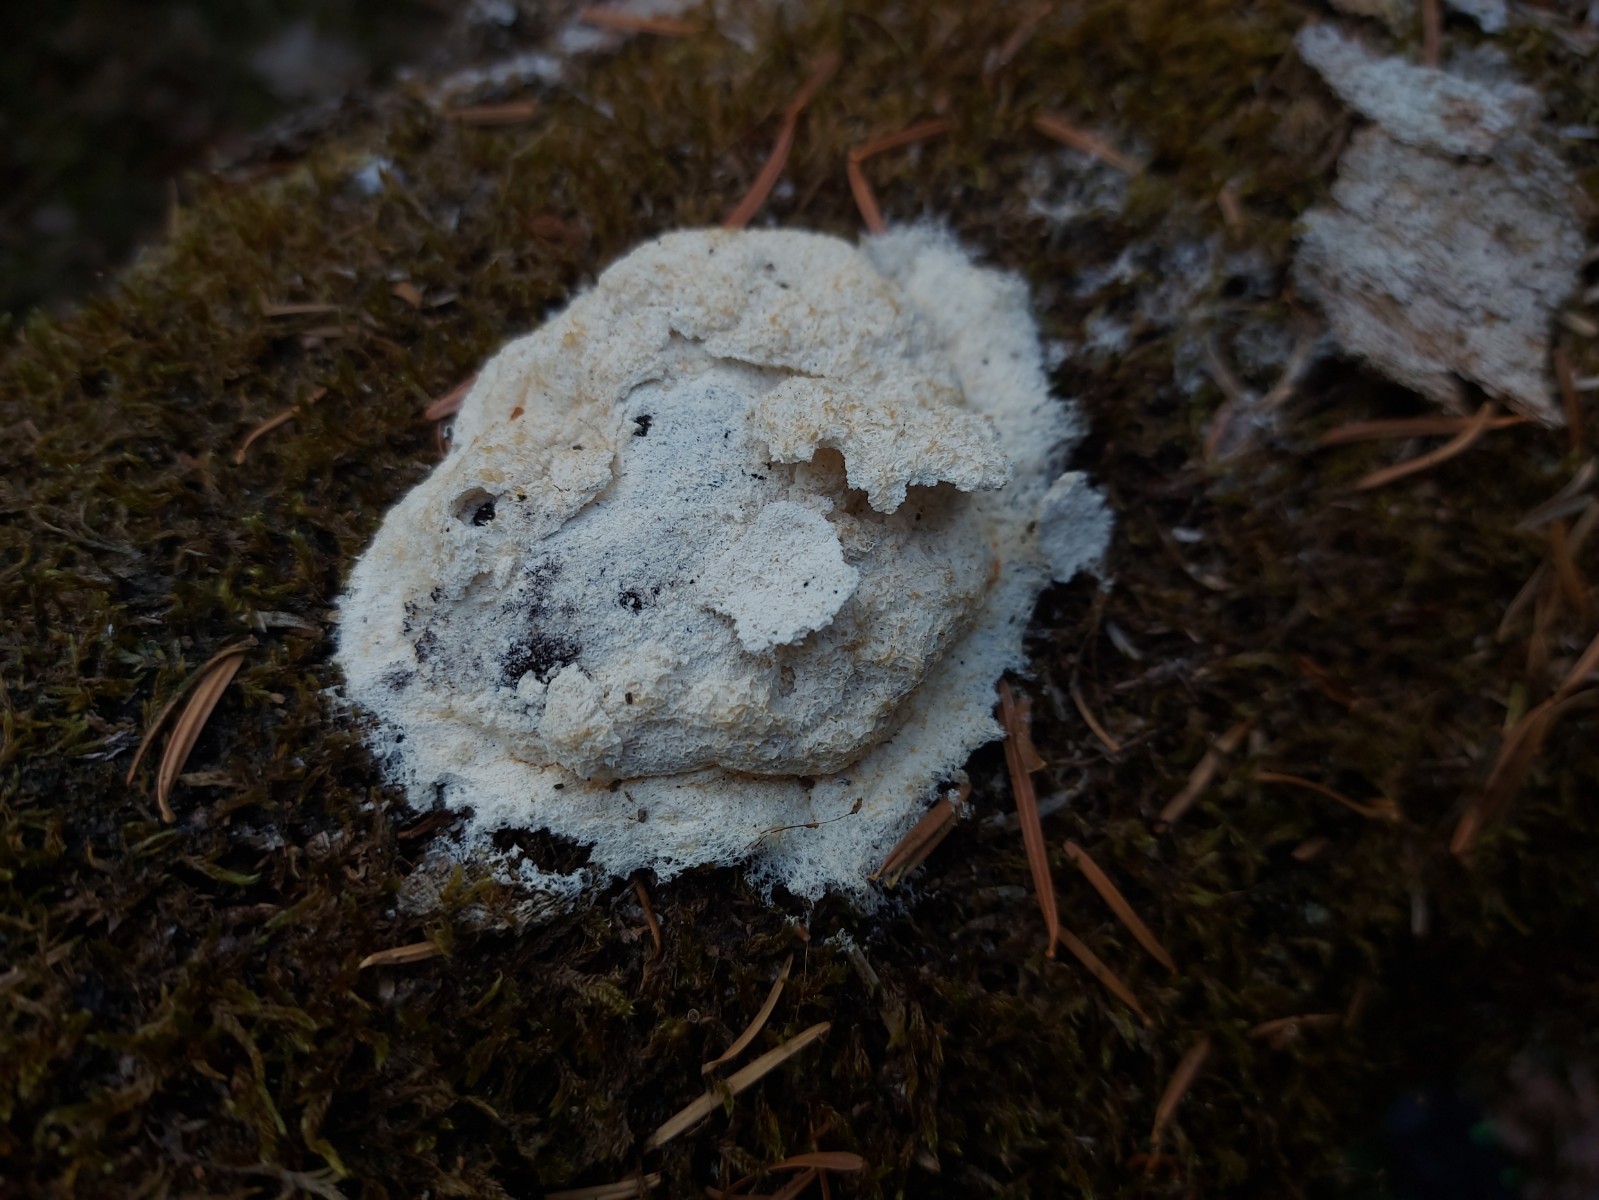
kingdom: Protozoa
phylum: Mycetozoa
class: Myxomycetes
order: Physarales
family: Physaraceae
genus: Fuligo
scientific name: Fuligo septica
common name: gul troldsmør
